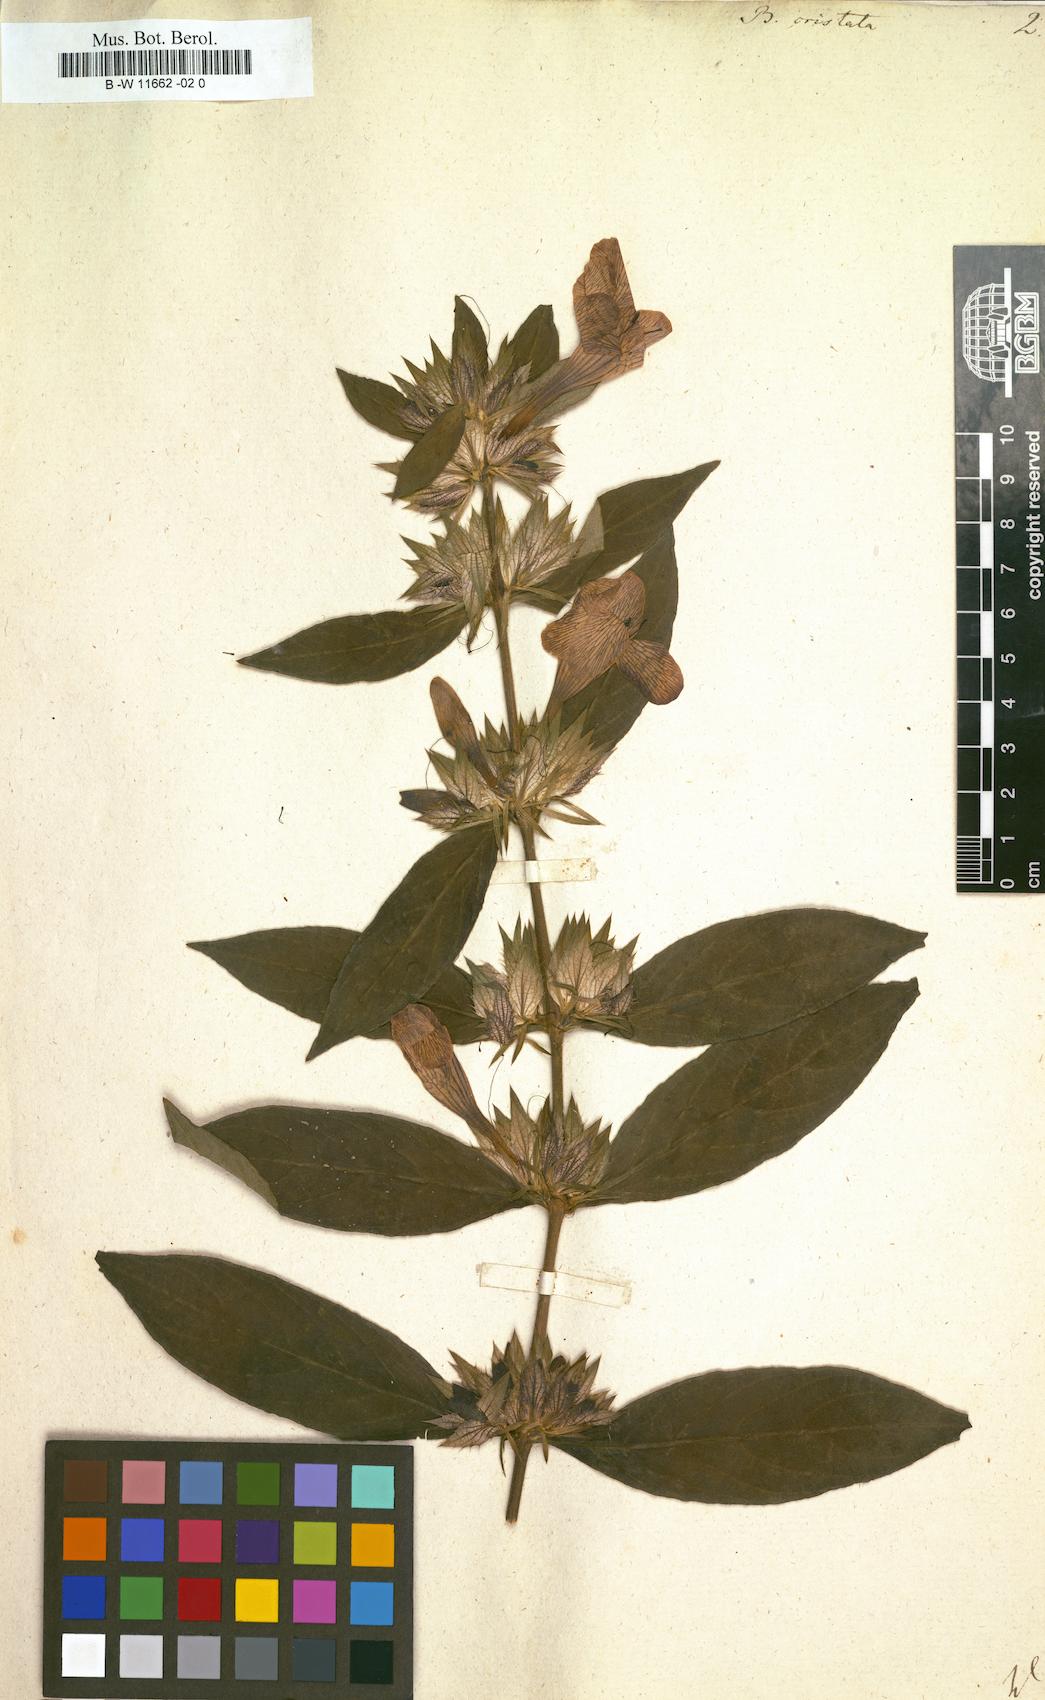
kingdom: Plantae
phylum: Tracheophyta
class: Magnoliopsida
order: Lamiales
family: Acanthaceae
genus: Barleria
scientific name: Barleria cristata
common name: Crested philippine violet
